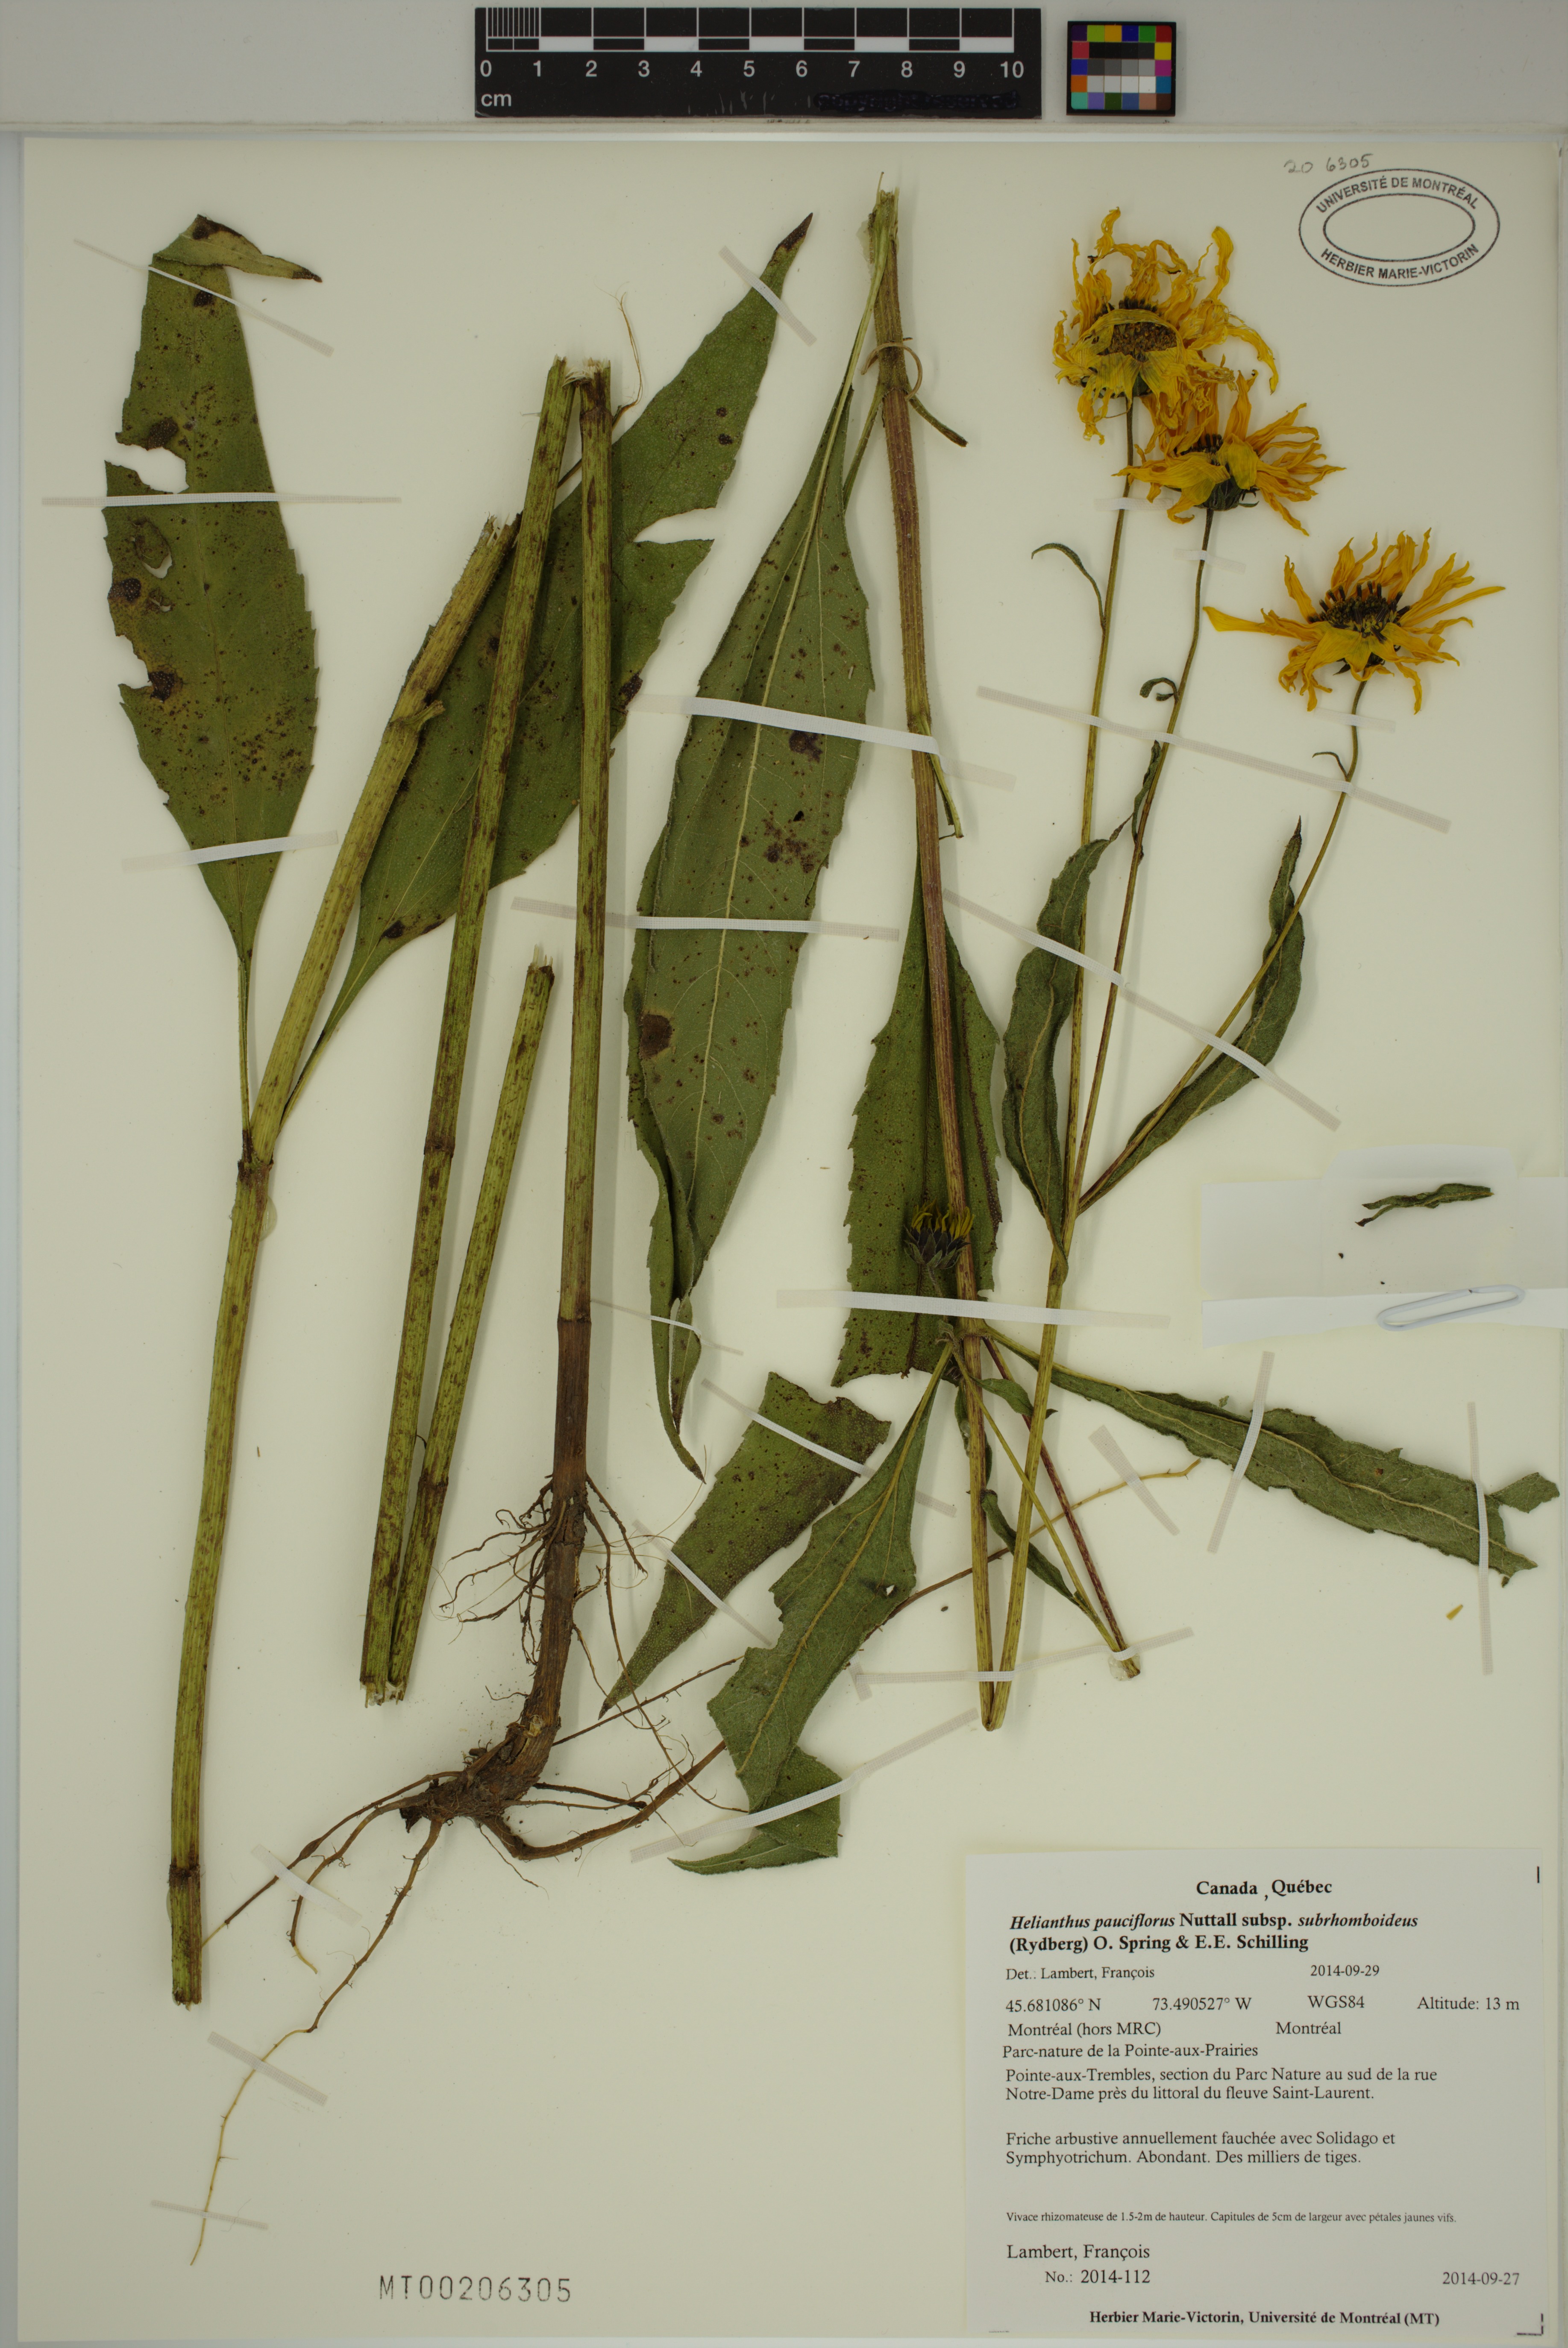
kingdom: Plantae
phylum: Tracheophyta
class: Magnoliopsida
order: Asterales
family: Asteraceae
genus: Helianthus
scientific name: Helianthus pauciflorus
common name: Stiff sunflower
